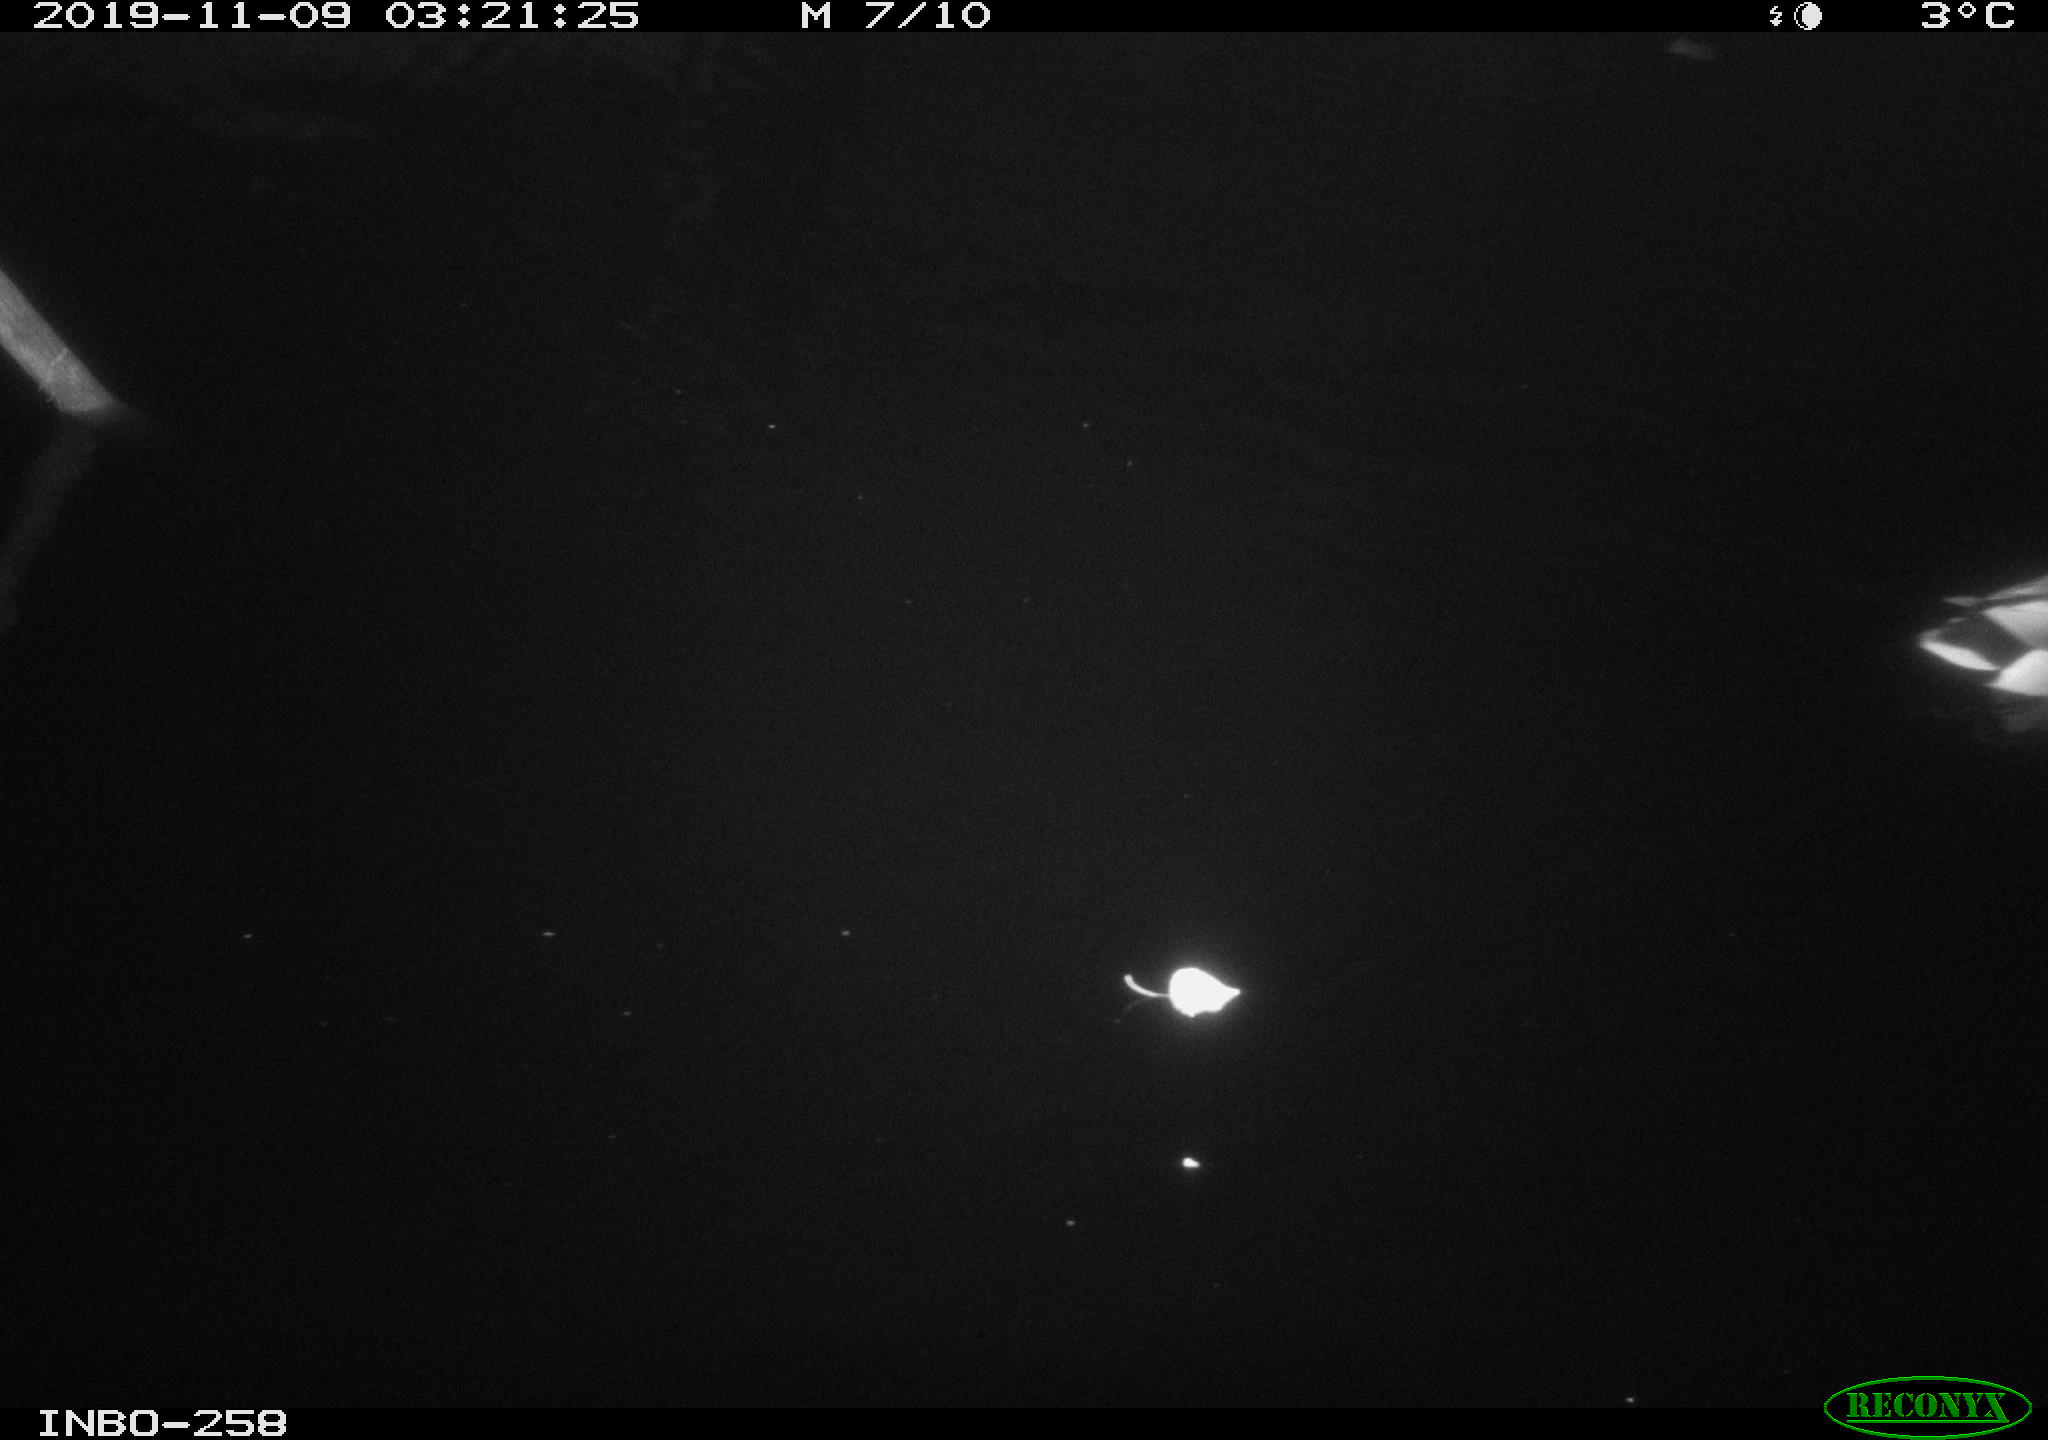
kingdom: Animalia
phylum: Chordata
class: Aves
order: Anseriformes
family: Anatidae
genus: Anas
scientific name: Anas platyrhynchos
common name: Mallard
